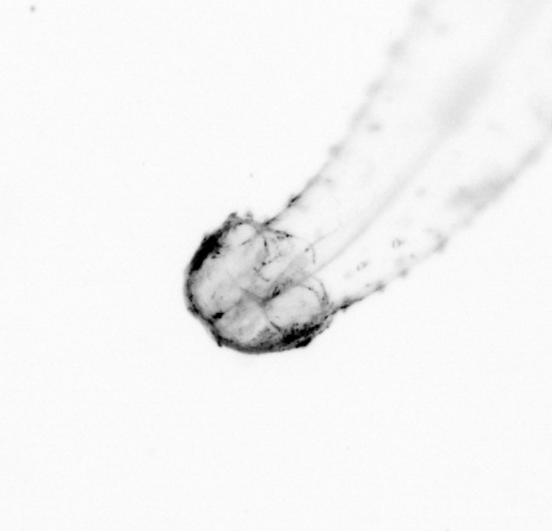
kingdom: Animalia
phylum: Chaetognatha
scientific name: Chaetognatha
